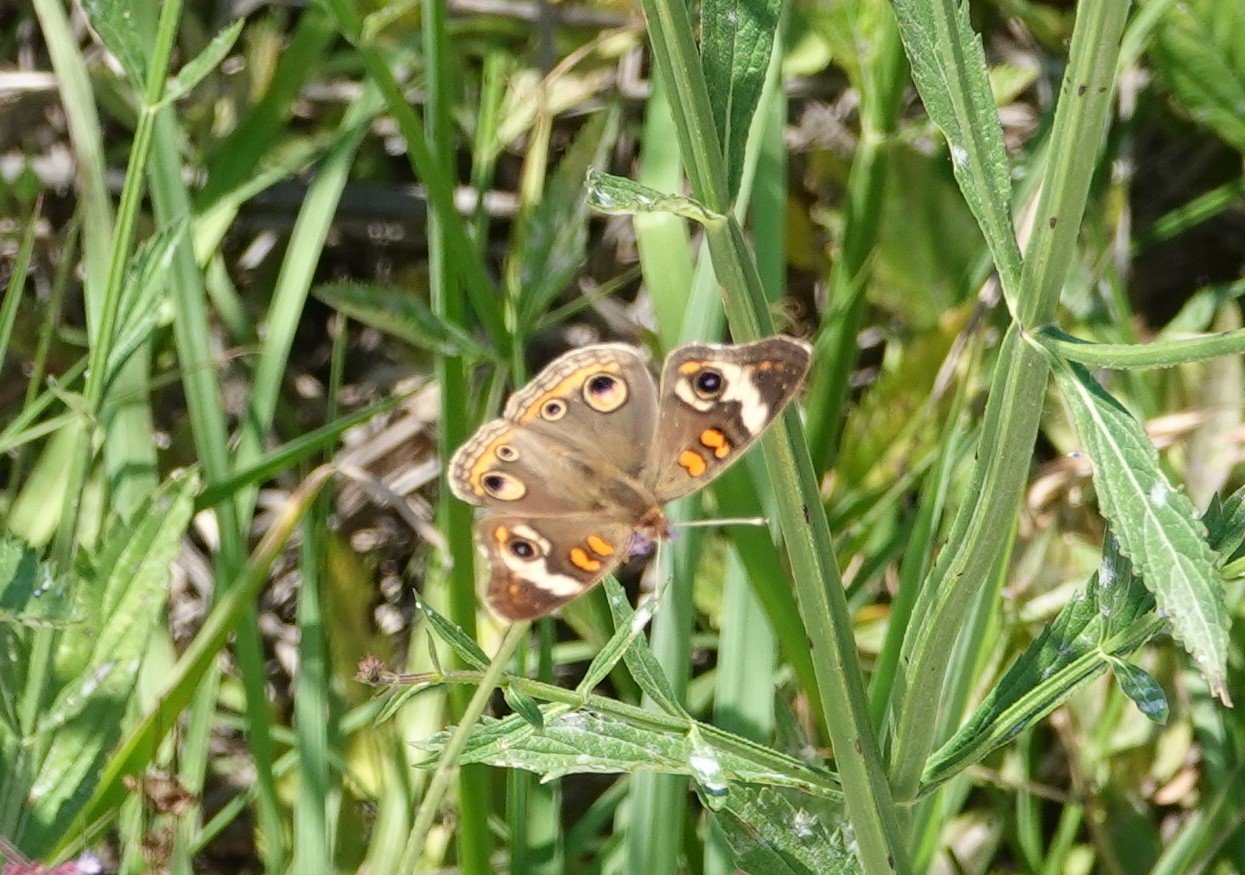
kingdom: Animalia
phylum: Arthropoda
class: Insecta
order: Lepidoptera
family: Nymphalidae
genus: Junonia
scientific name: Junonia coenia
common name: Common Buckeye
